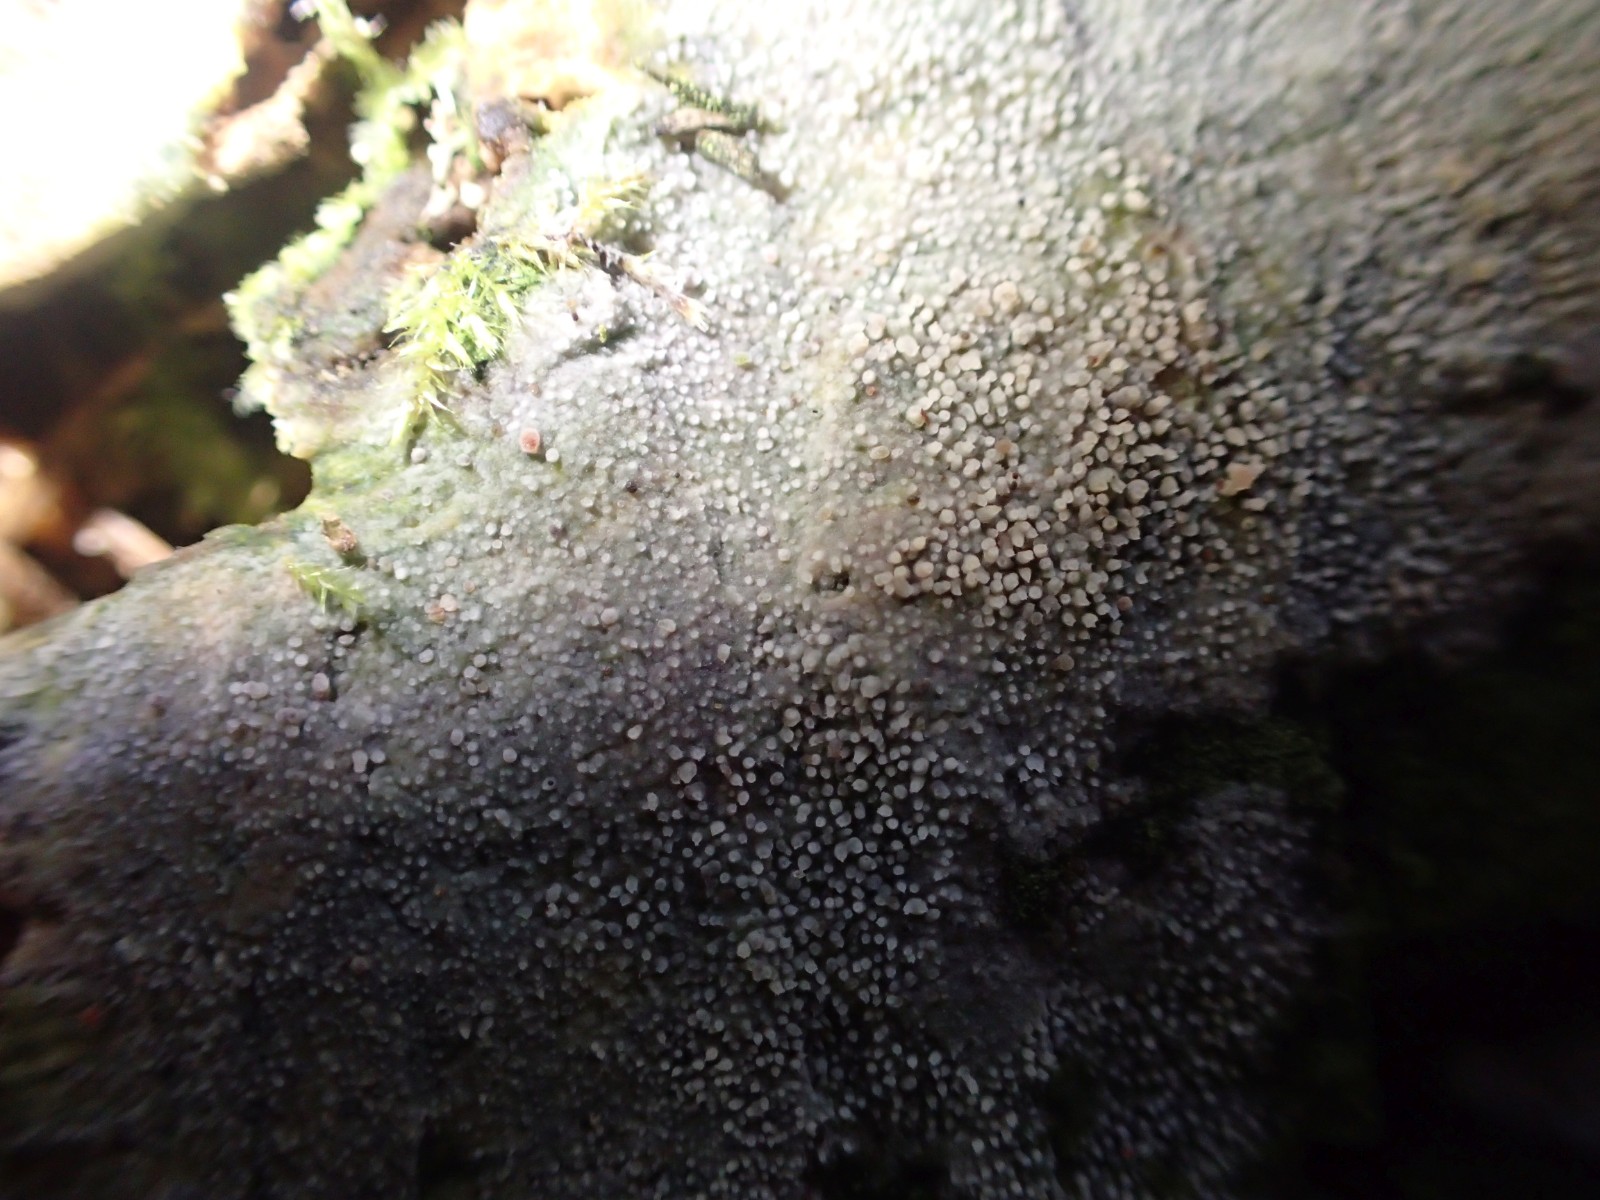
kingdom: Fungi
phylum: Basidiomycota
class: Agaricomycetes
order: Corticiales
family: Corticiaceae
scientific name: Corticiaceae
